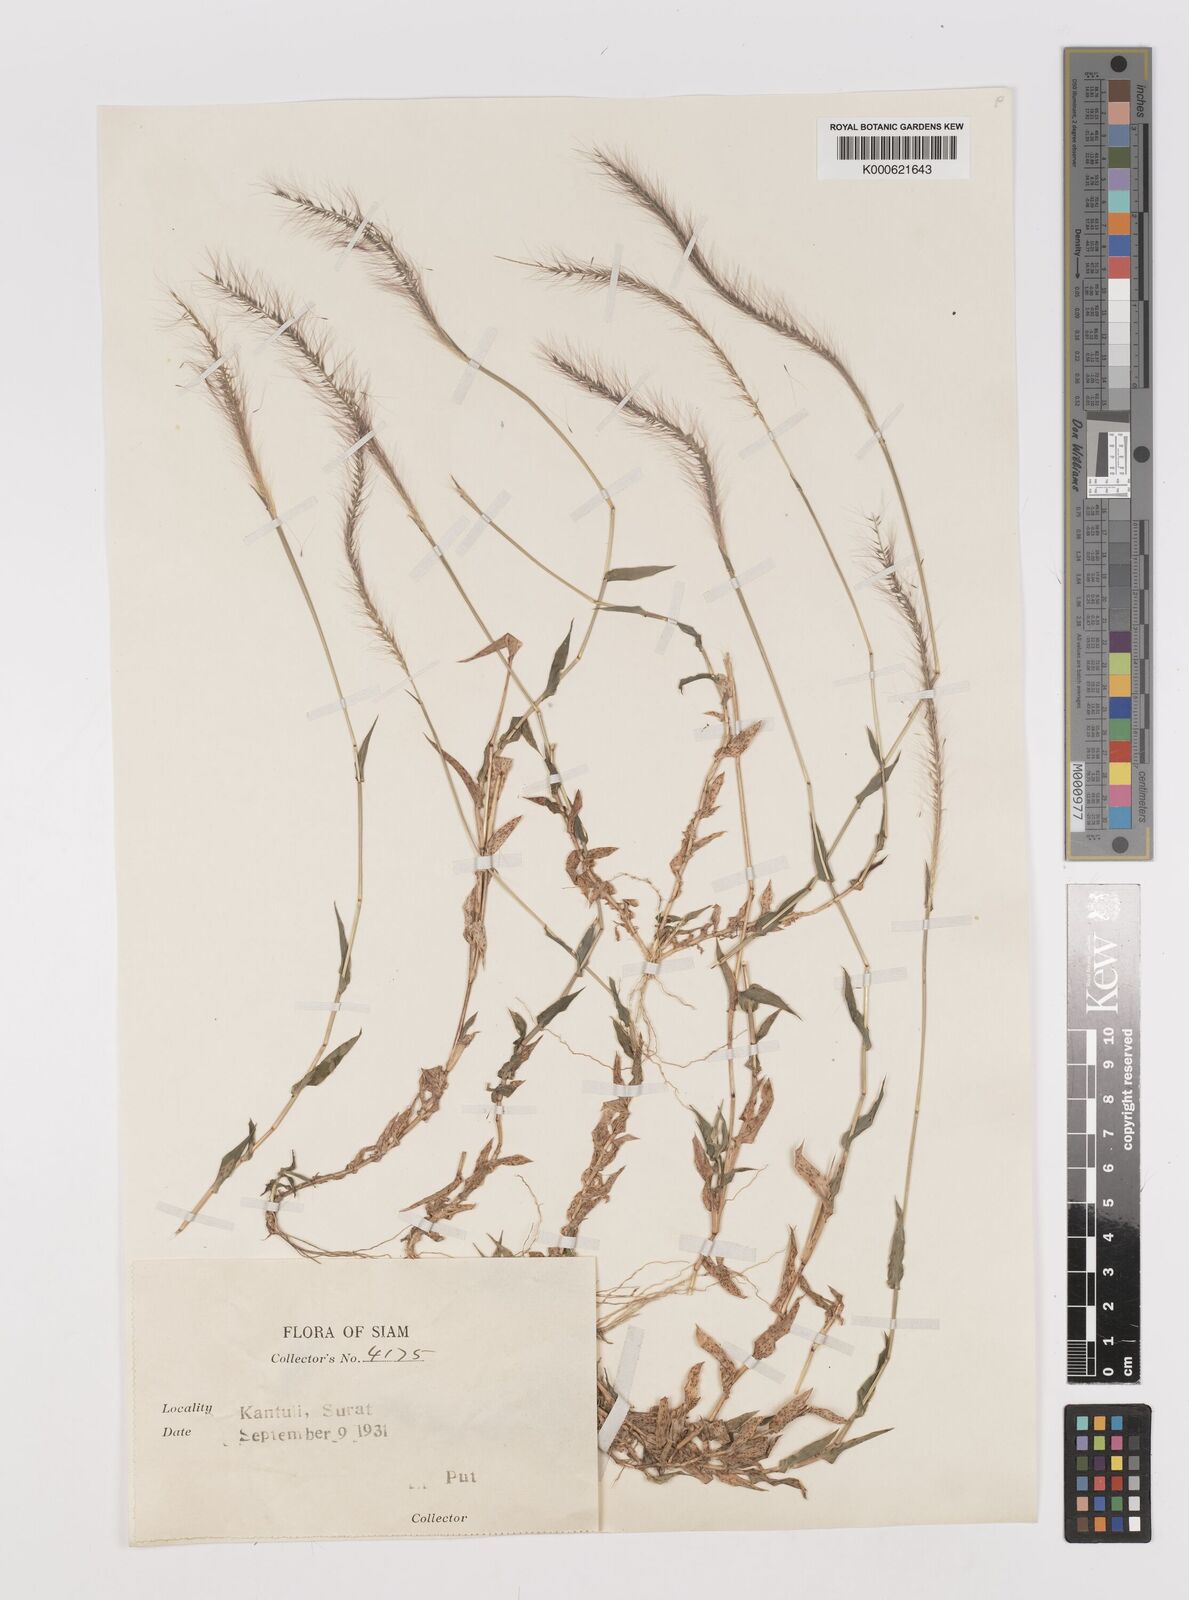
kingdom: Plantae
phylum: Tracheophyta
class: Liliopsida
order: Poales
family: Poaceae
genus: Perotis
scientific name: Perotis indica
